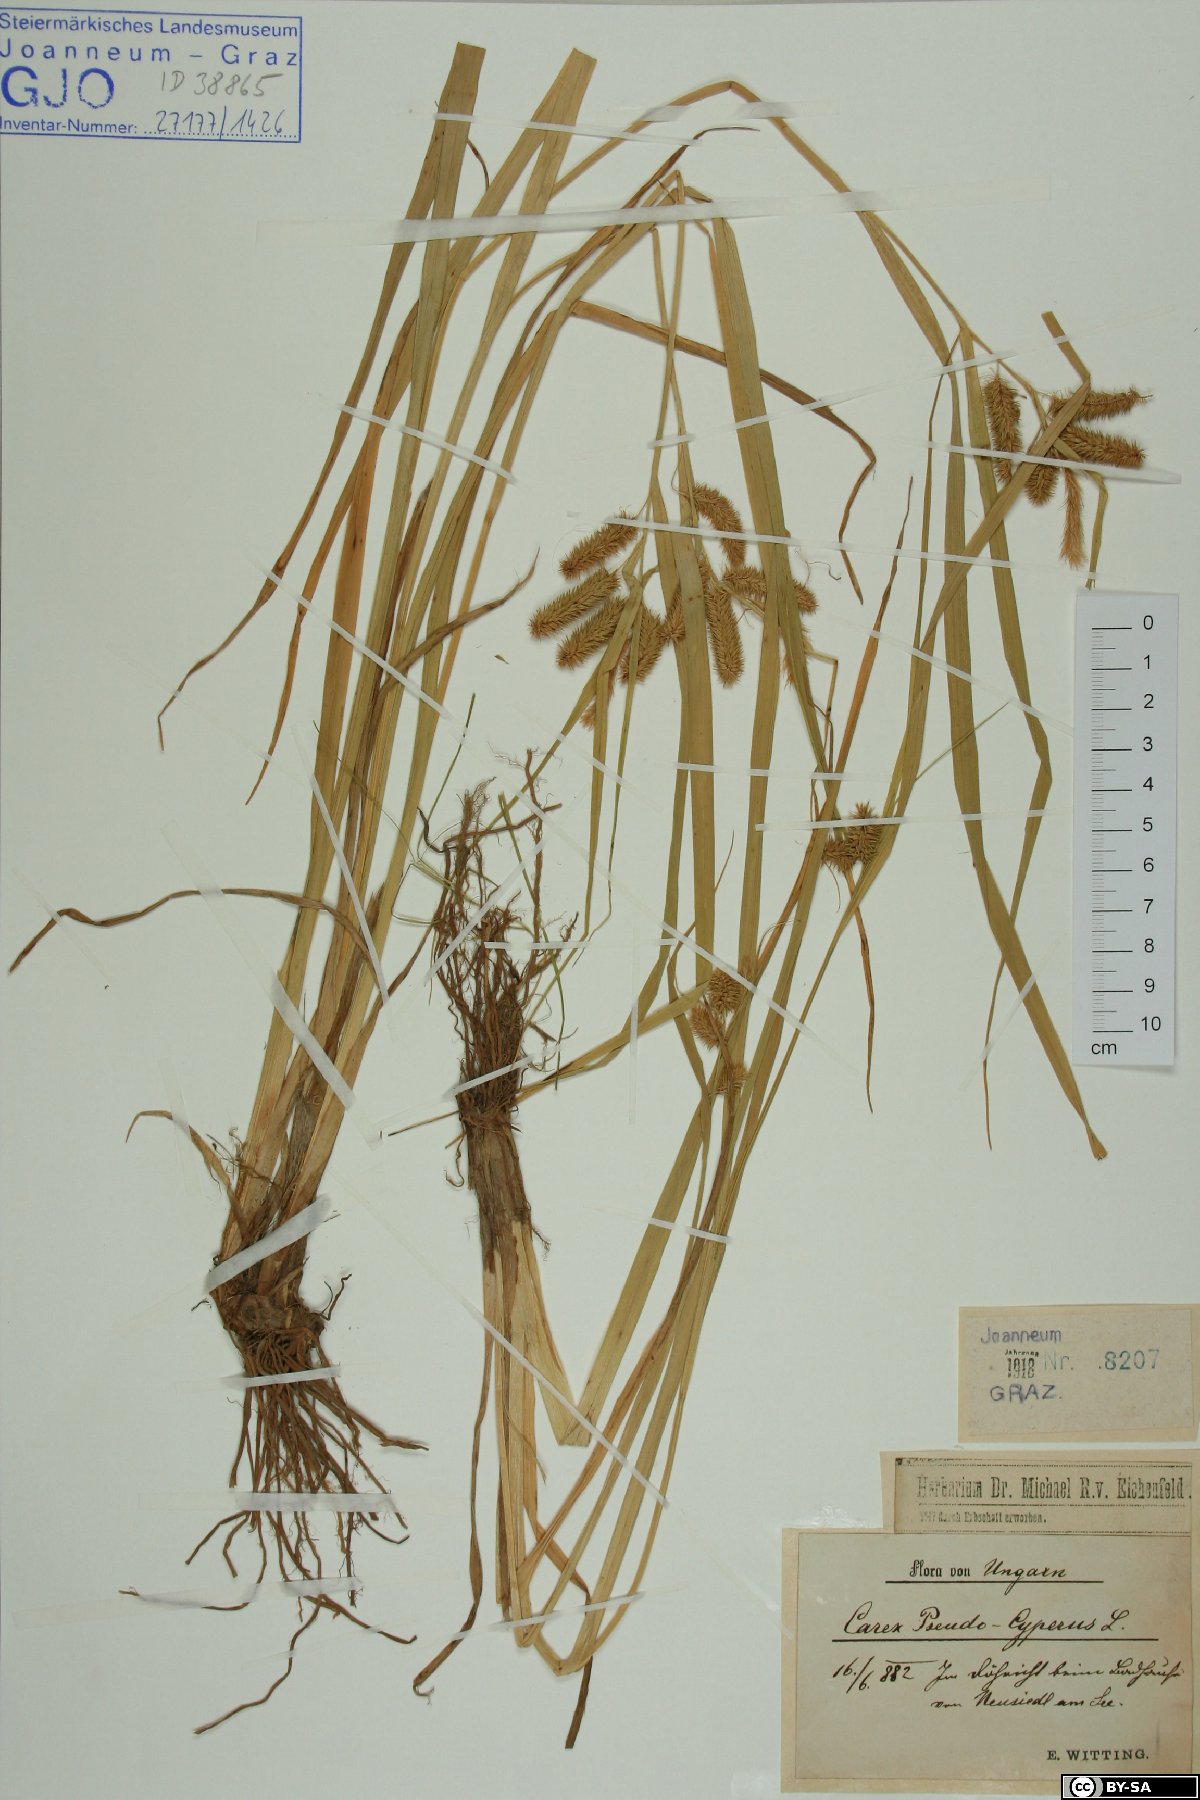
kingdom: Plantae
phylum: Tracheophyta
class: Liliopsida
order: Poales
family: Cyperaceae
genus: Carex
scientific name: Carex pseudocyperus
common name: Cyperus sedge
